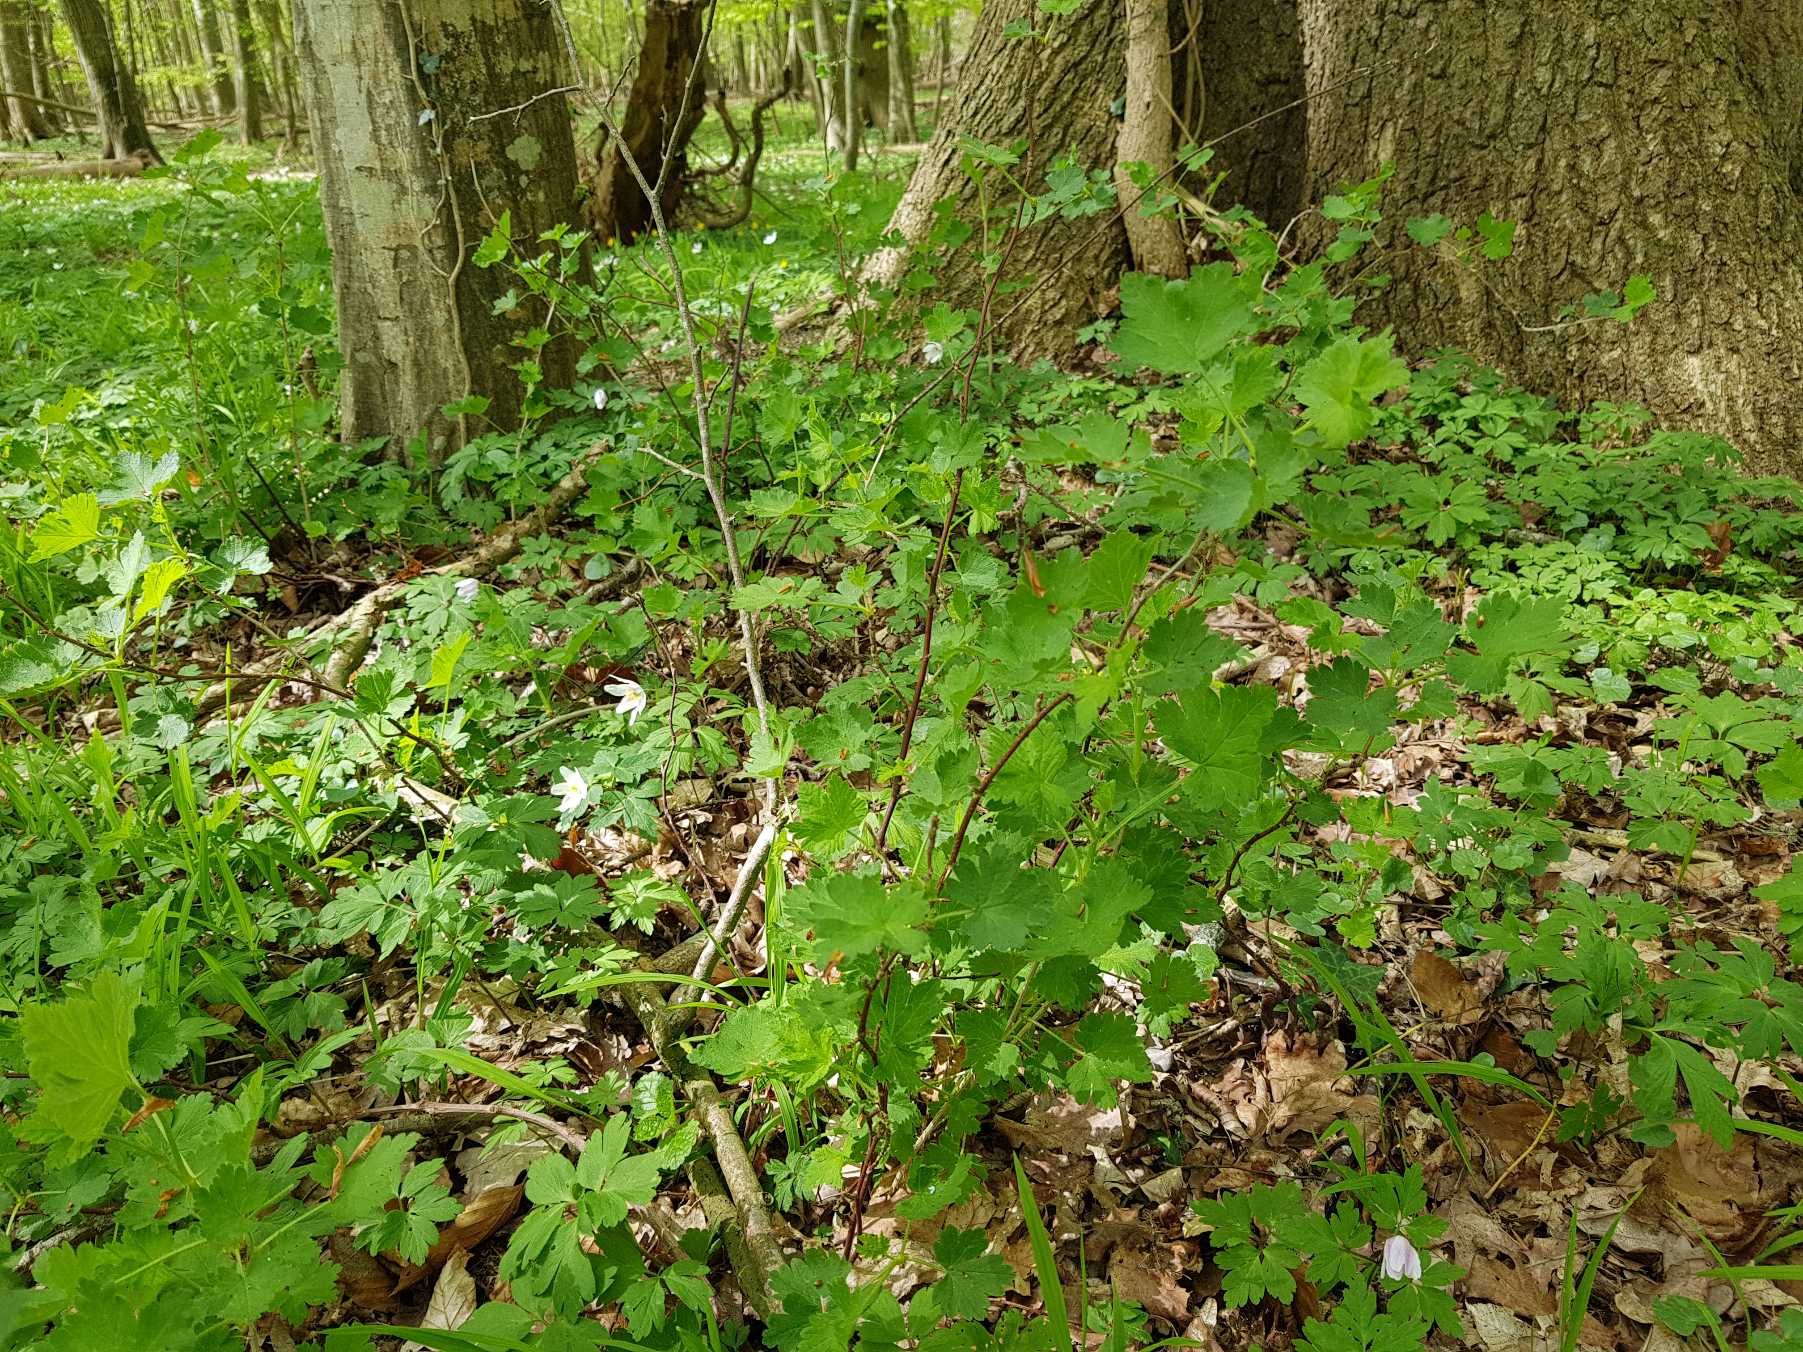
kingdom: Plantae
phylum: Tracheophyta
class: Magnoliopsida
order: Saxifragales
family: Grossulariaceae
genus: Ribes
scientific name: Ribes uva-crispa
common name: Stikkelsbær
